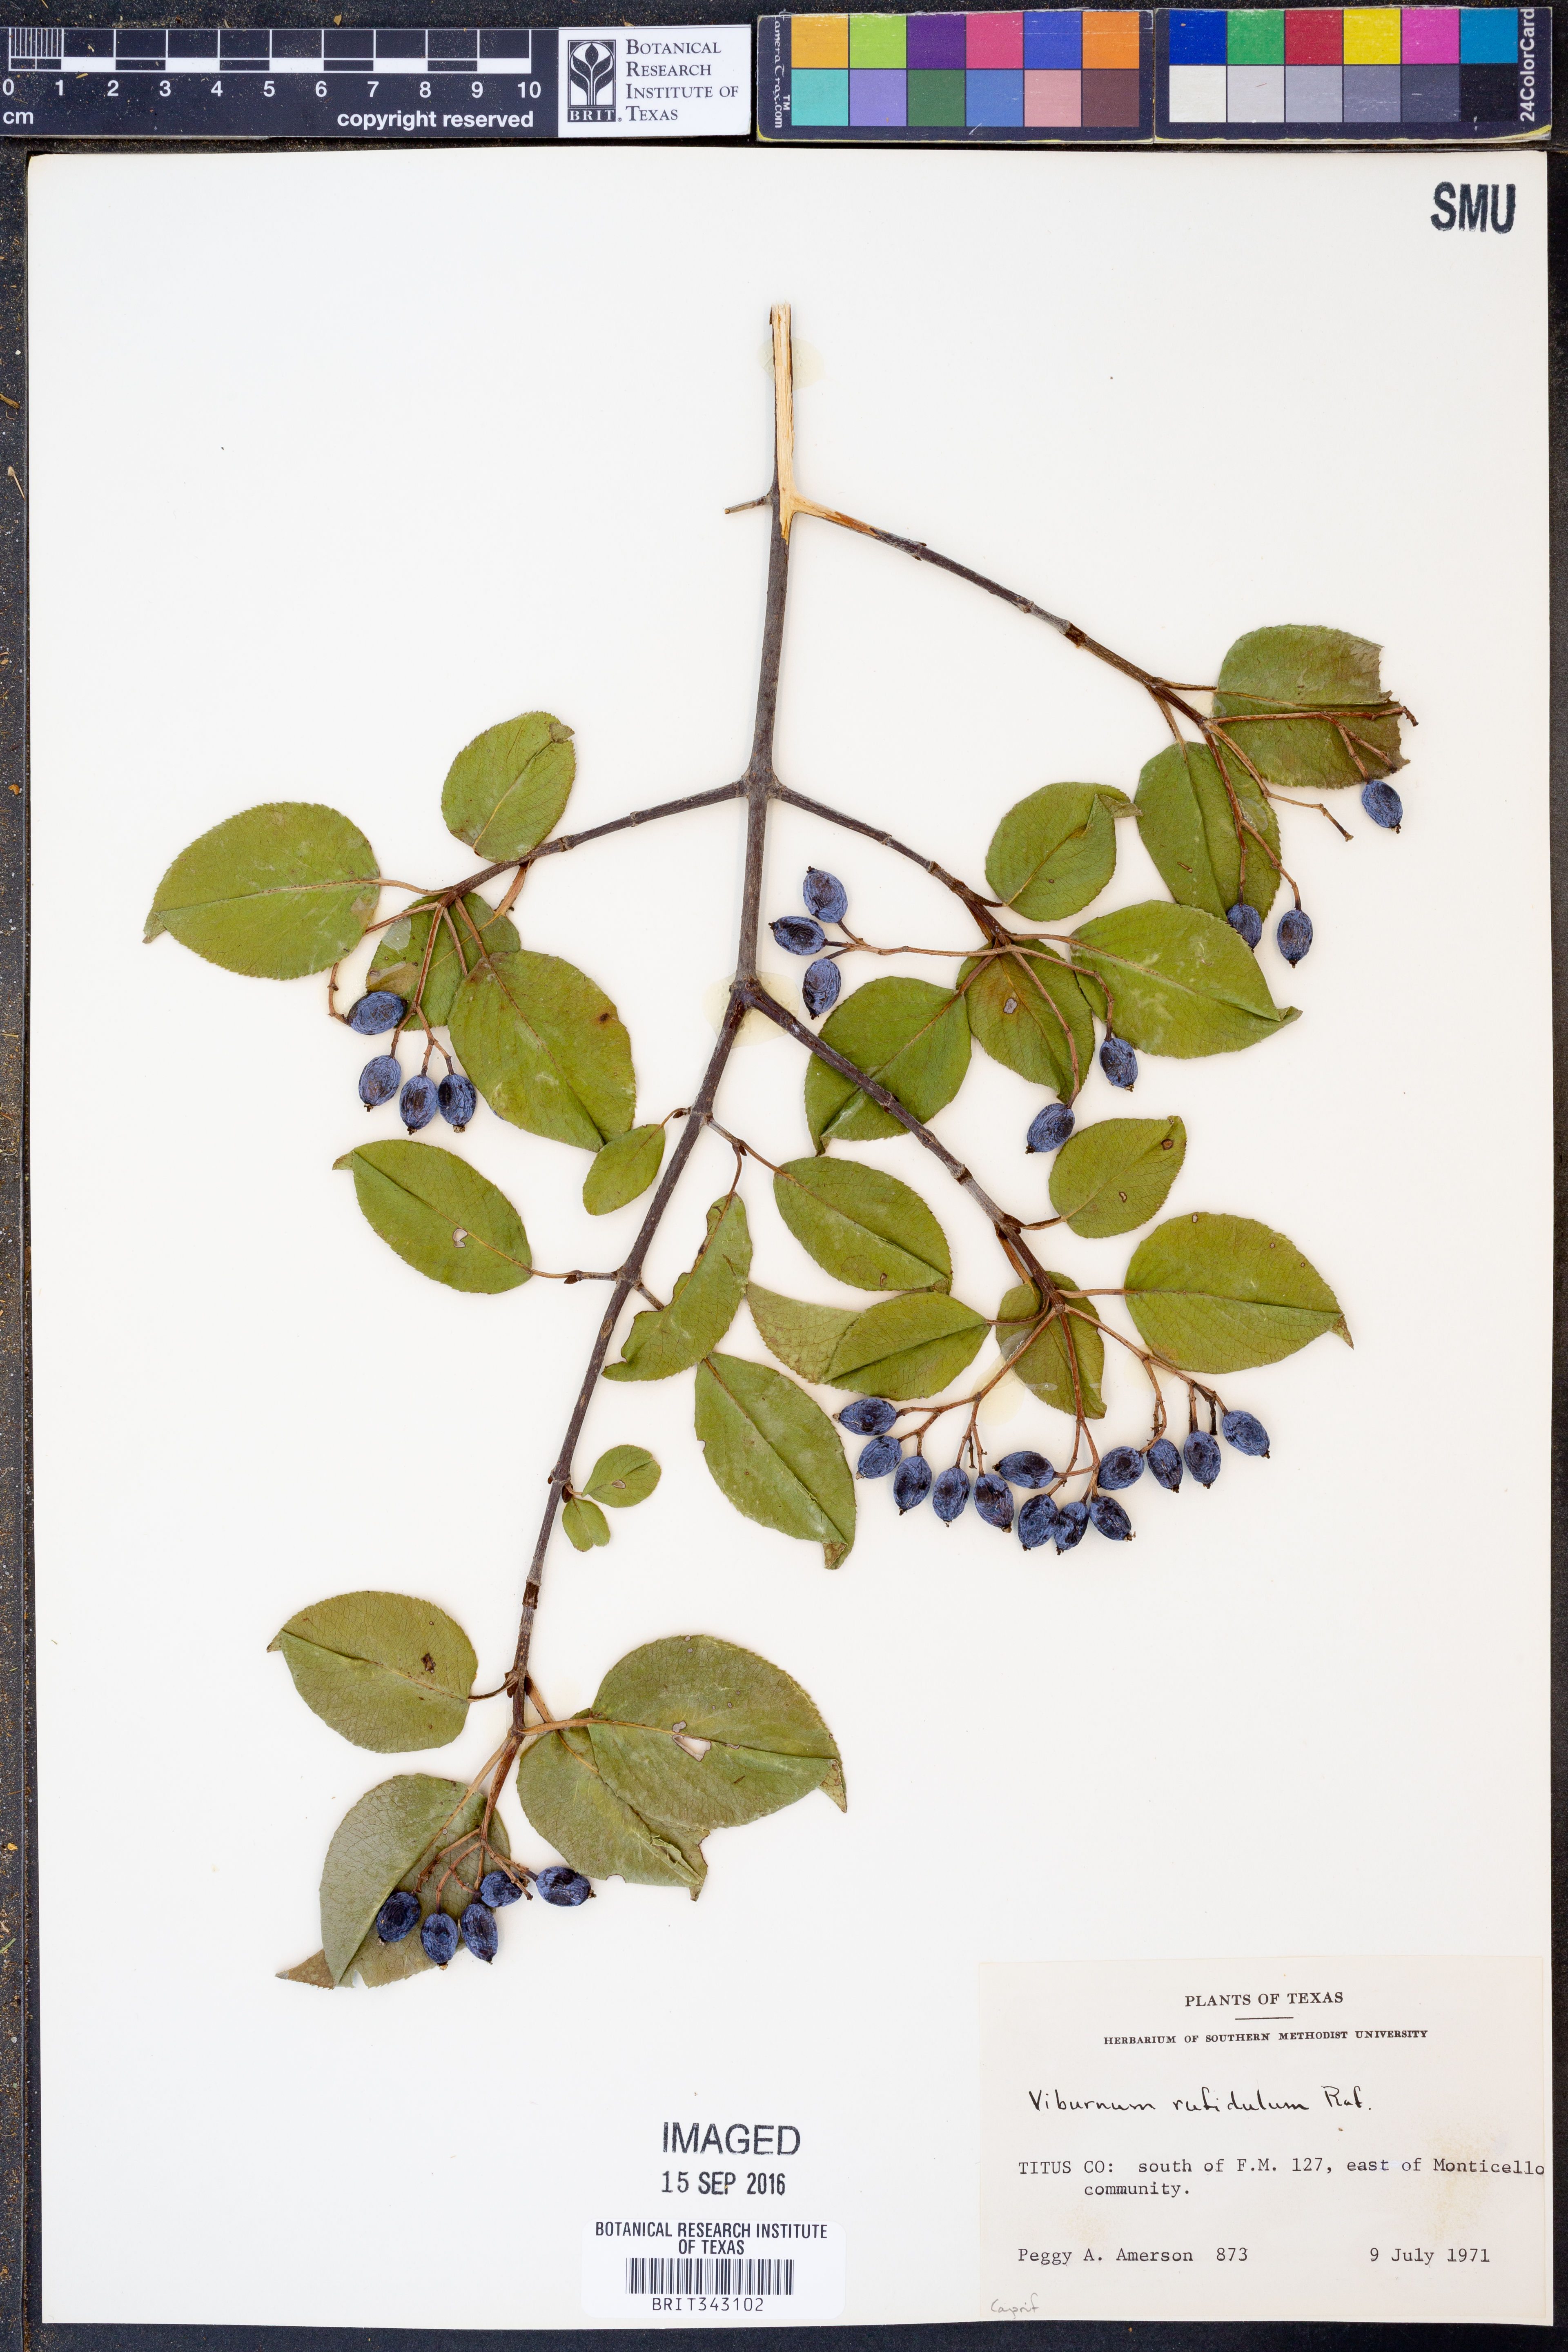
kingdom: Plantae
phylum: Tracheophyta
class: Magnoliopsida
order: Dipsacales
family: Viburnaceae
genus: Viburnum
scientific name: Viburnum rufidulum
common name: Blue haw
